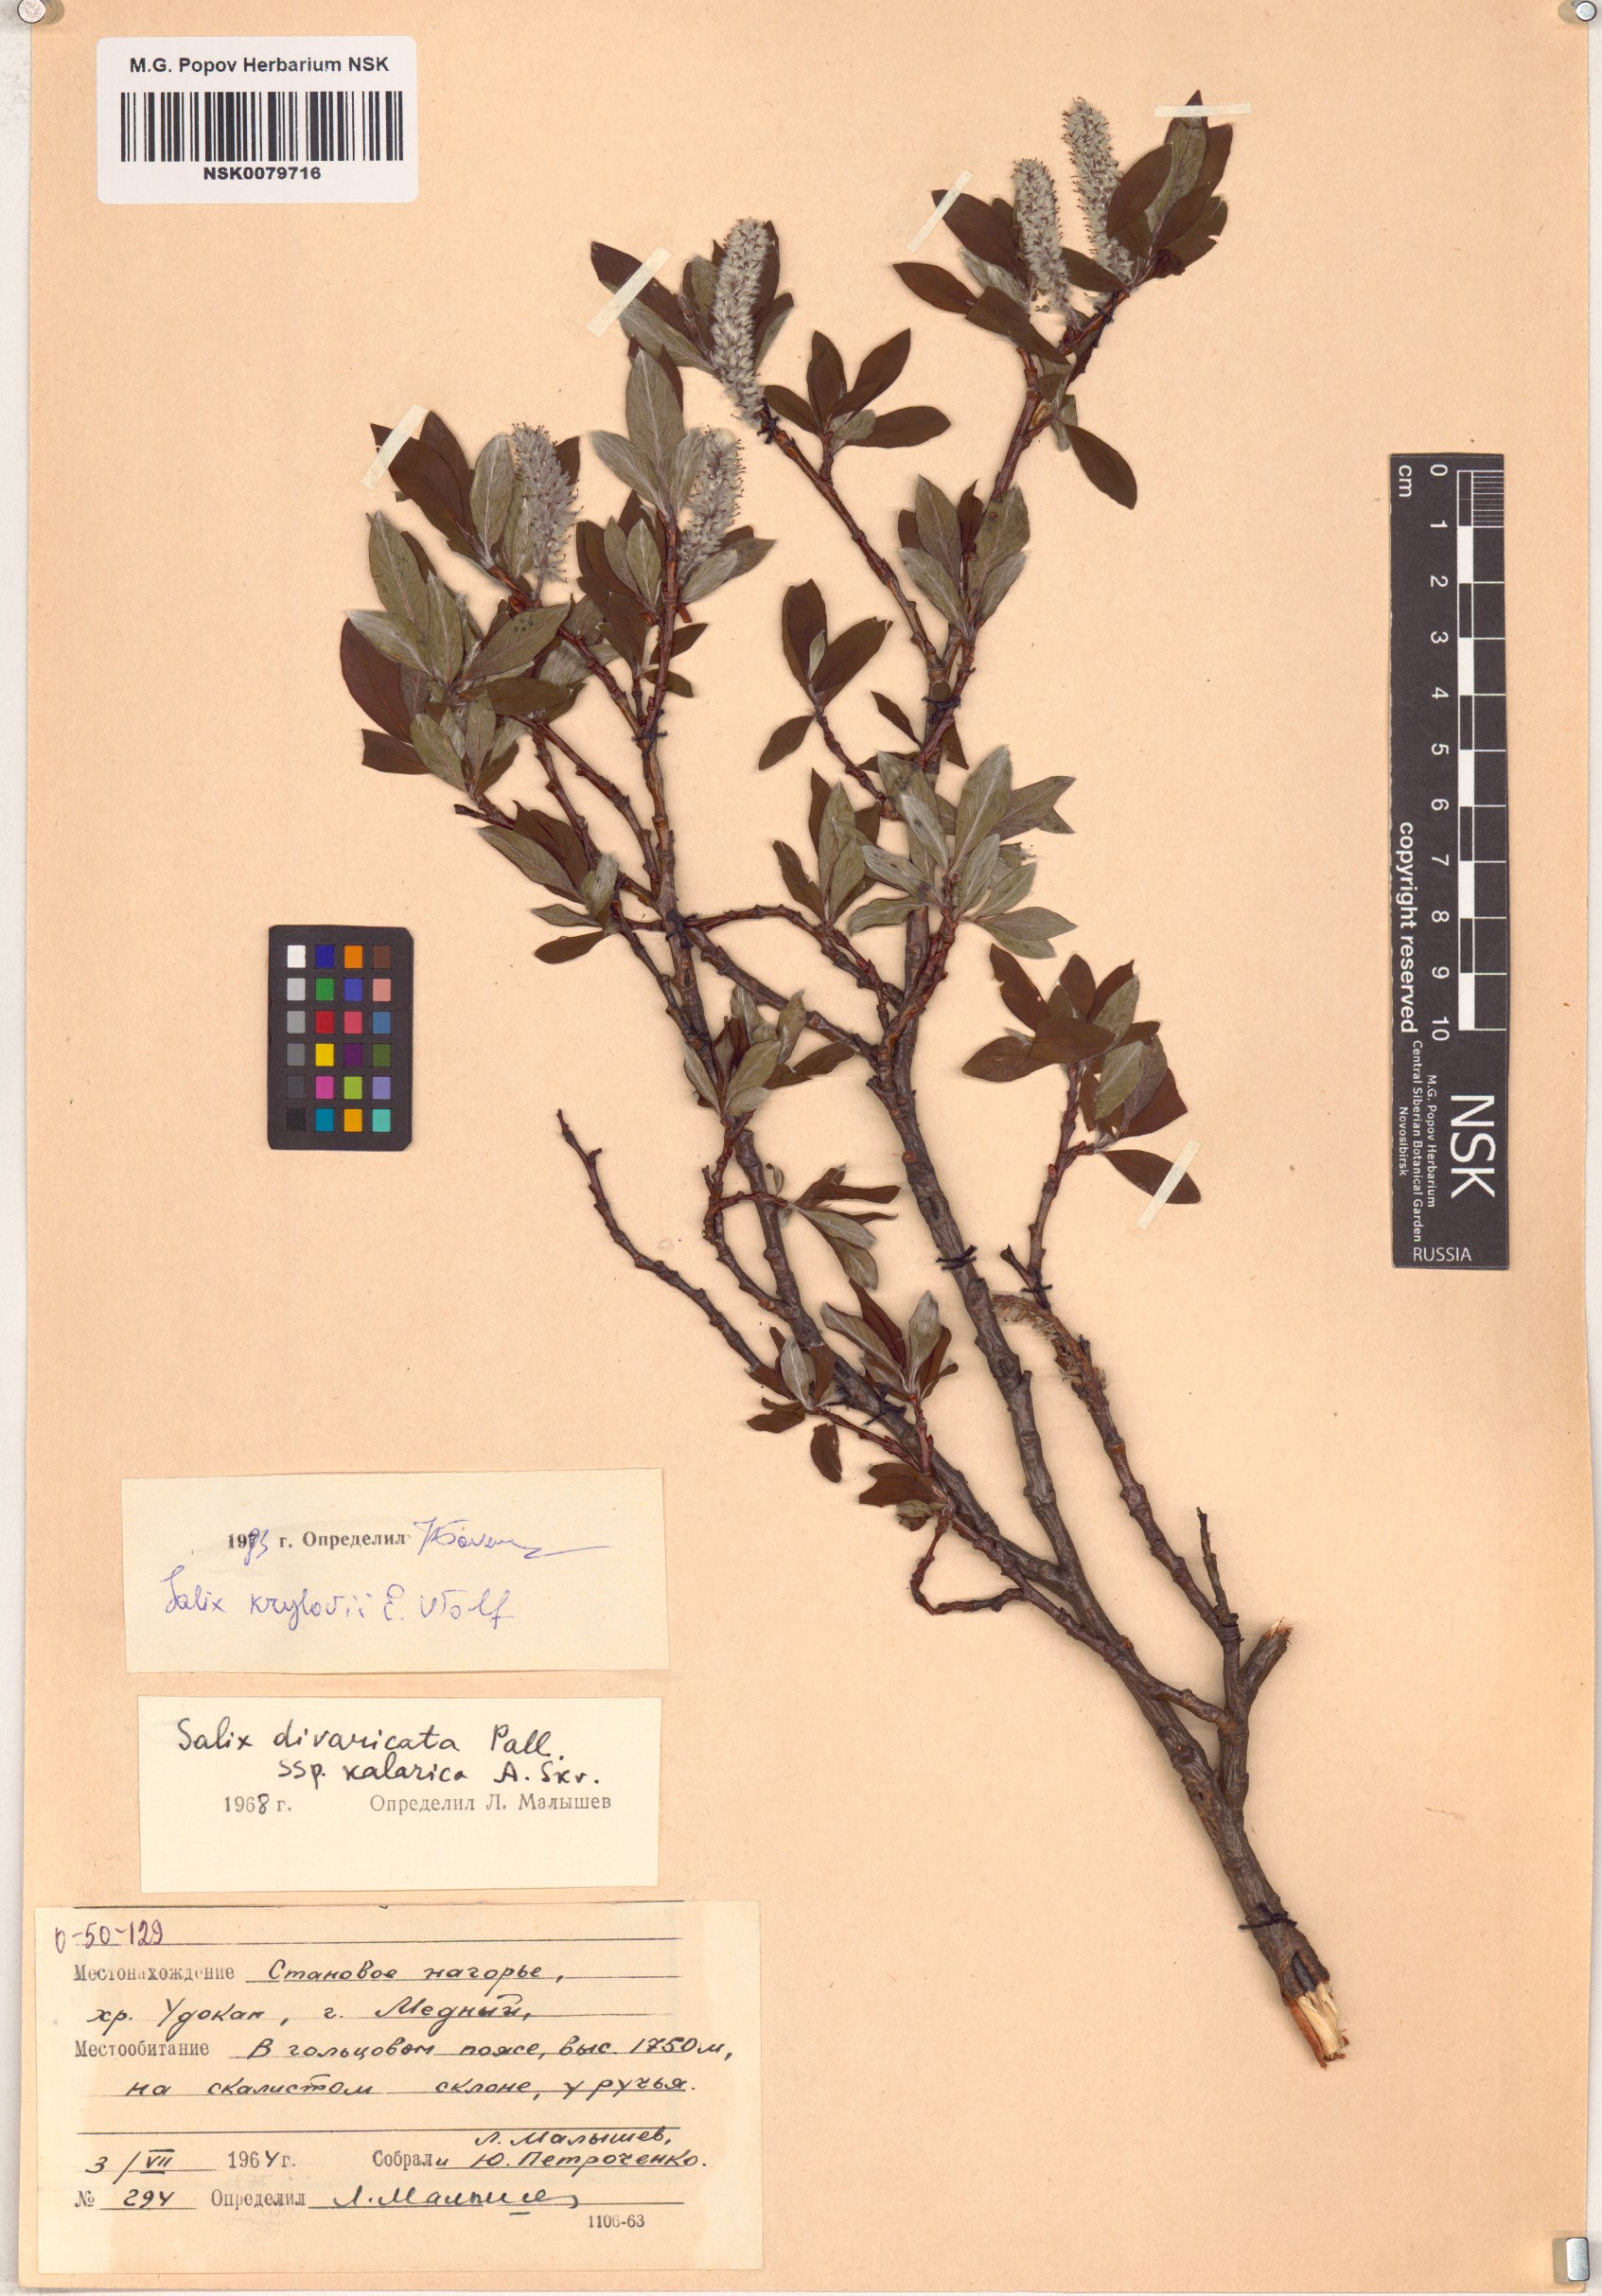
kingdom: Plantae
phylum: Tracheophyta
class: Magnoliopsida
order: Malpighiales
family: Salicaceae
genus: Salix
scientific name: Salix krylovii
